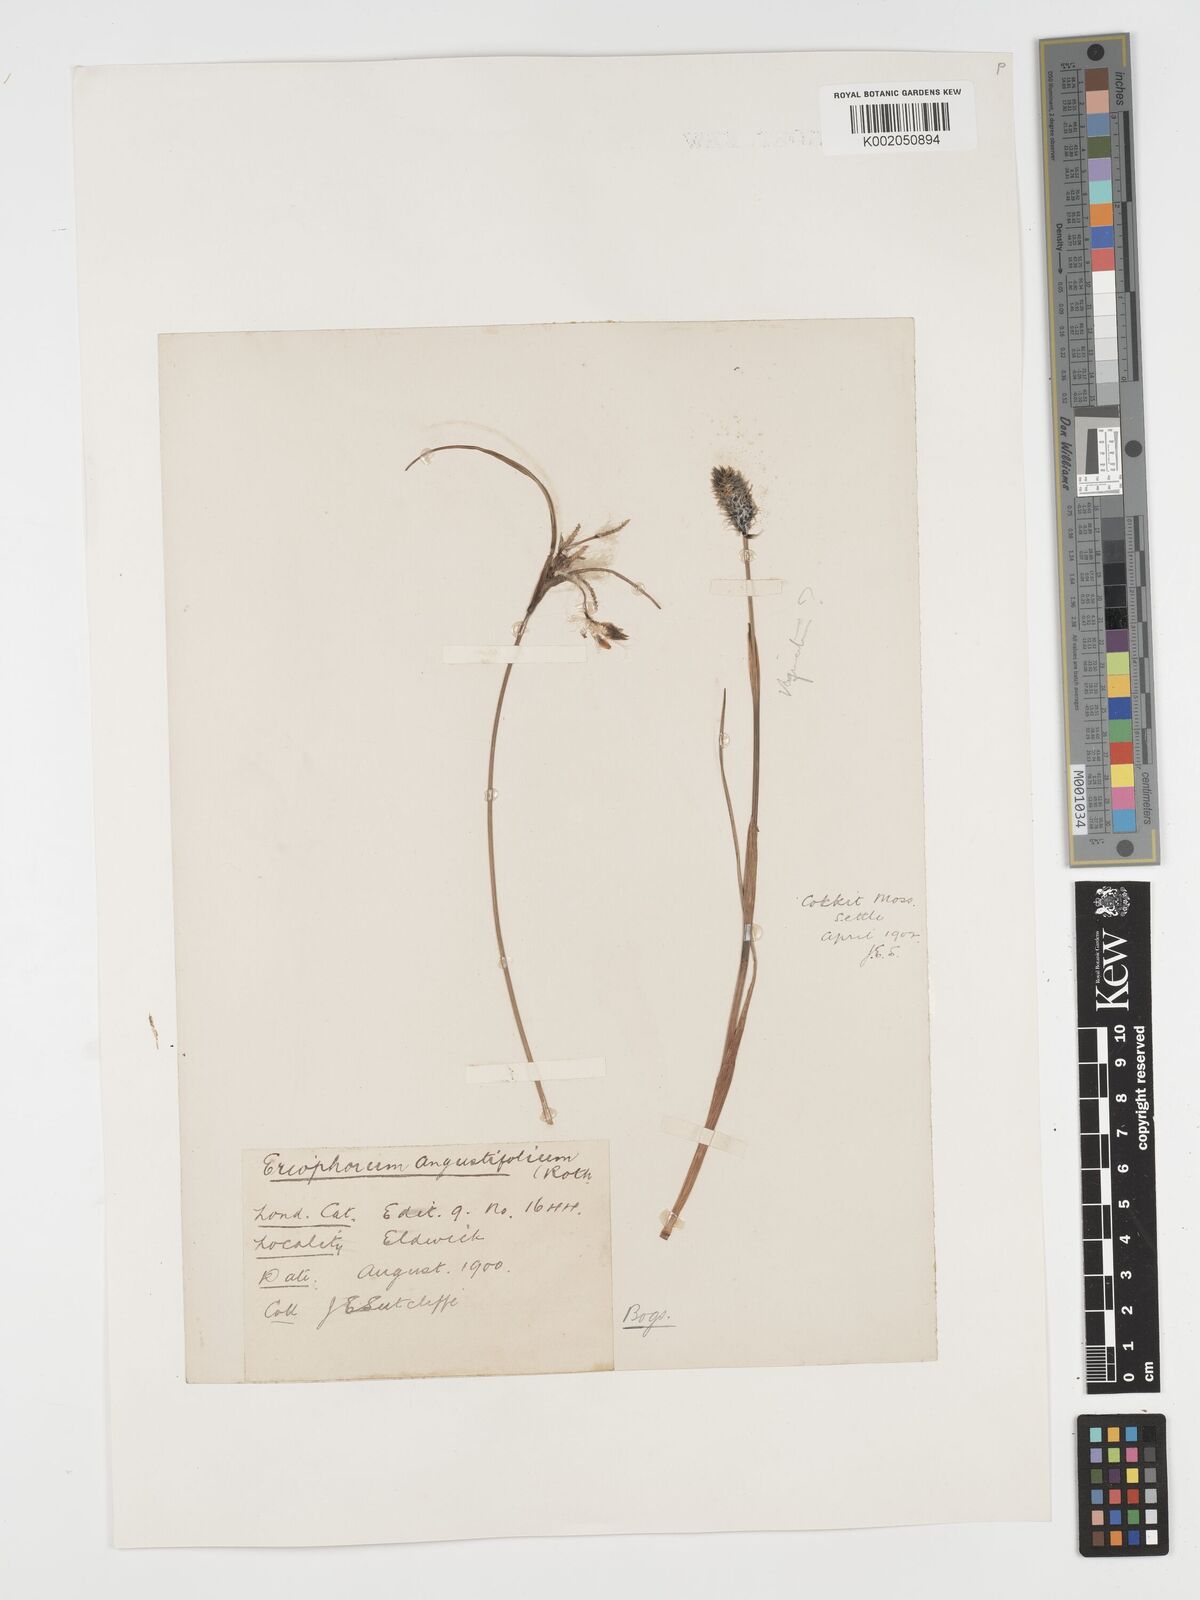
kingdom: Plantae
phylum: Tracheophyta
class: Liliopsida
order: Poales
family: Cyperaceae
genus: Eriophorum
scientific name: Eriophorum angustifolium
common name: Common cottongrass
